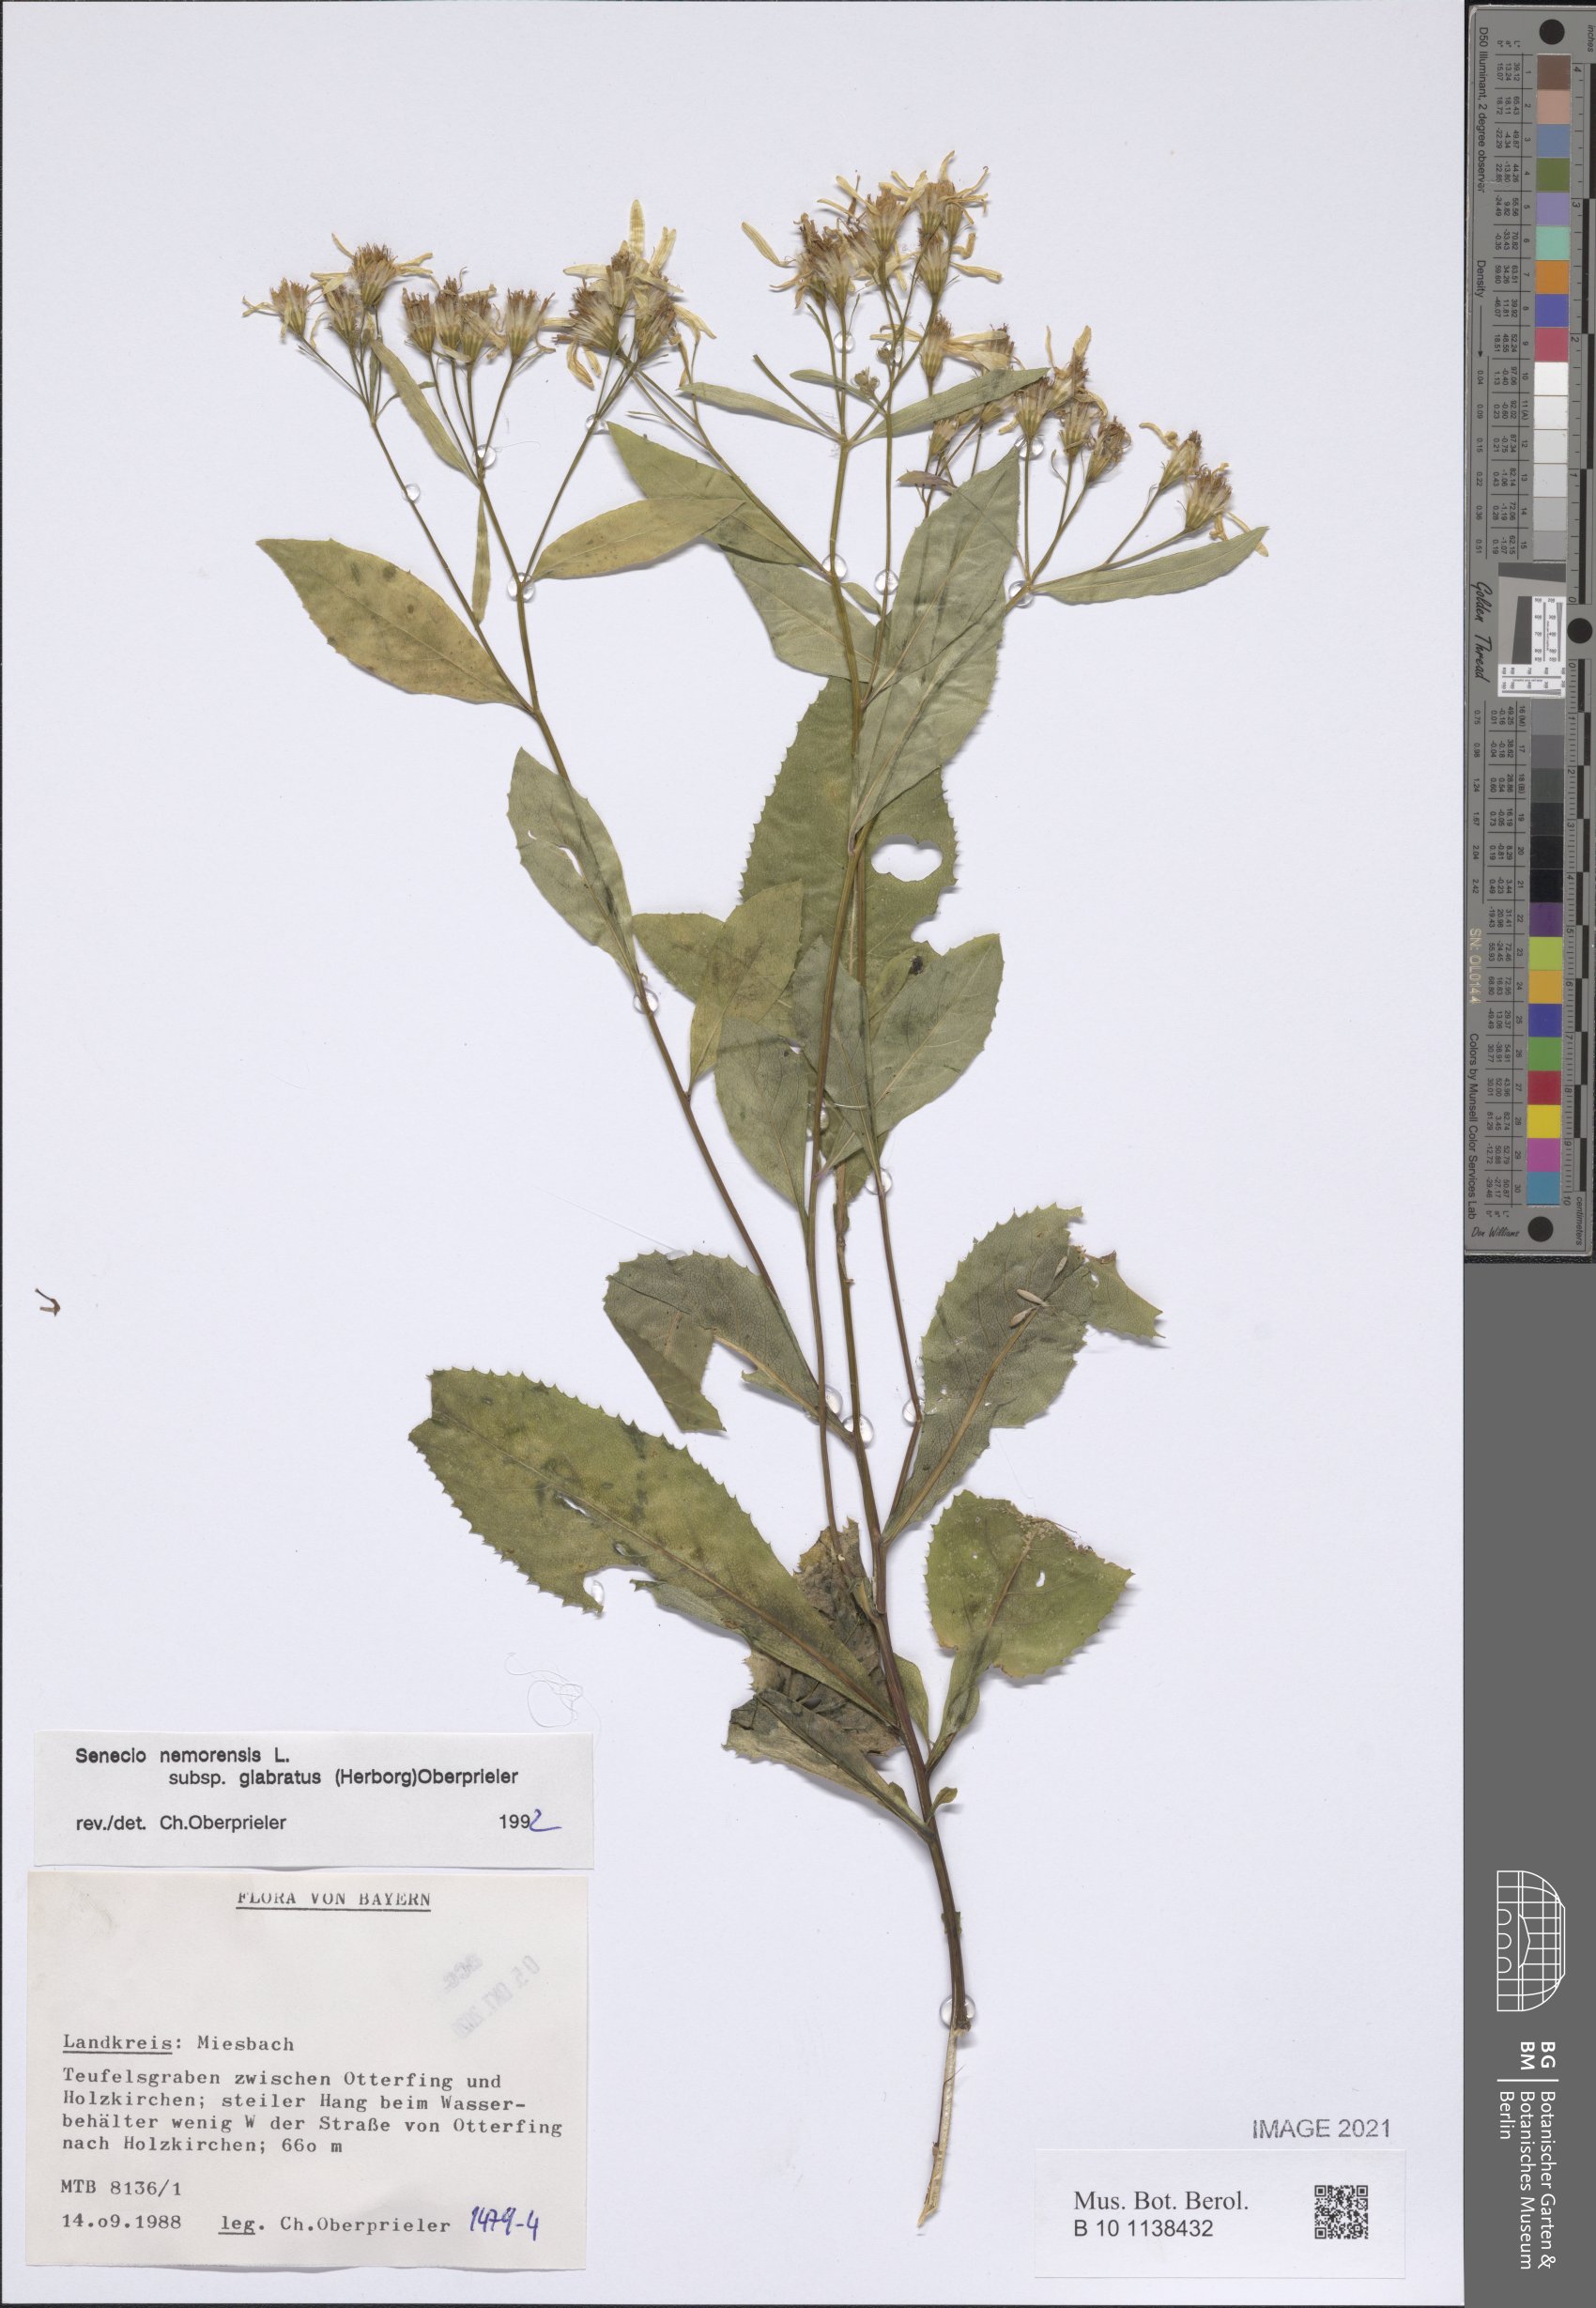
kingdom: Plantae
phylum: Tracheophyta
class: Magnoliopsida
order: Asterales
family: Asteraceae
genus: Senecio
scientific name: Senecio germanicus
